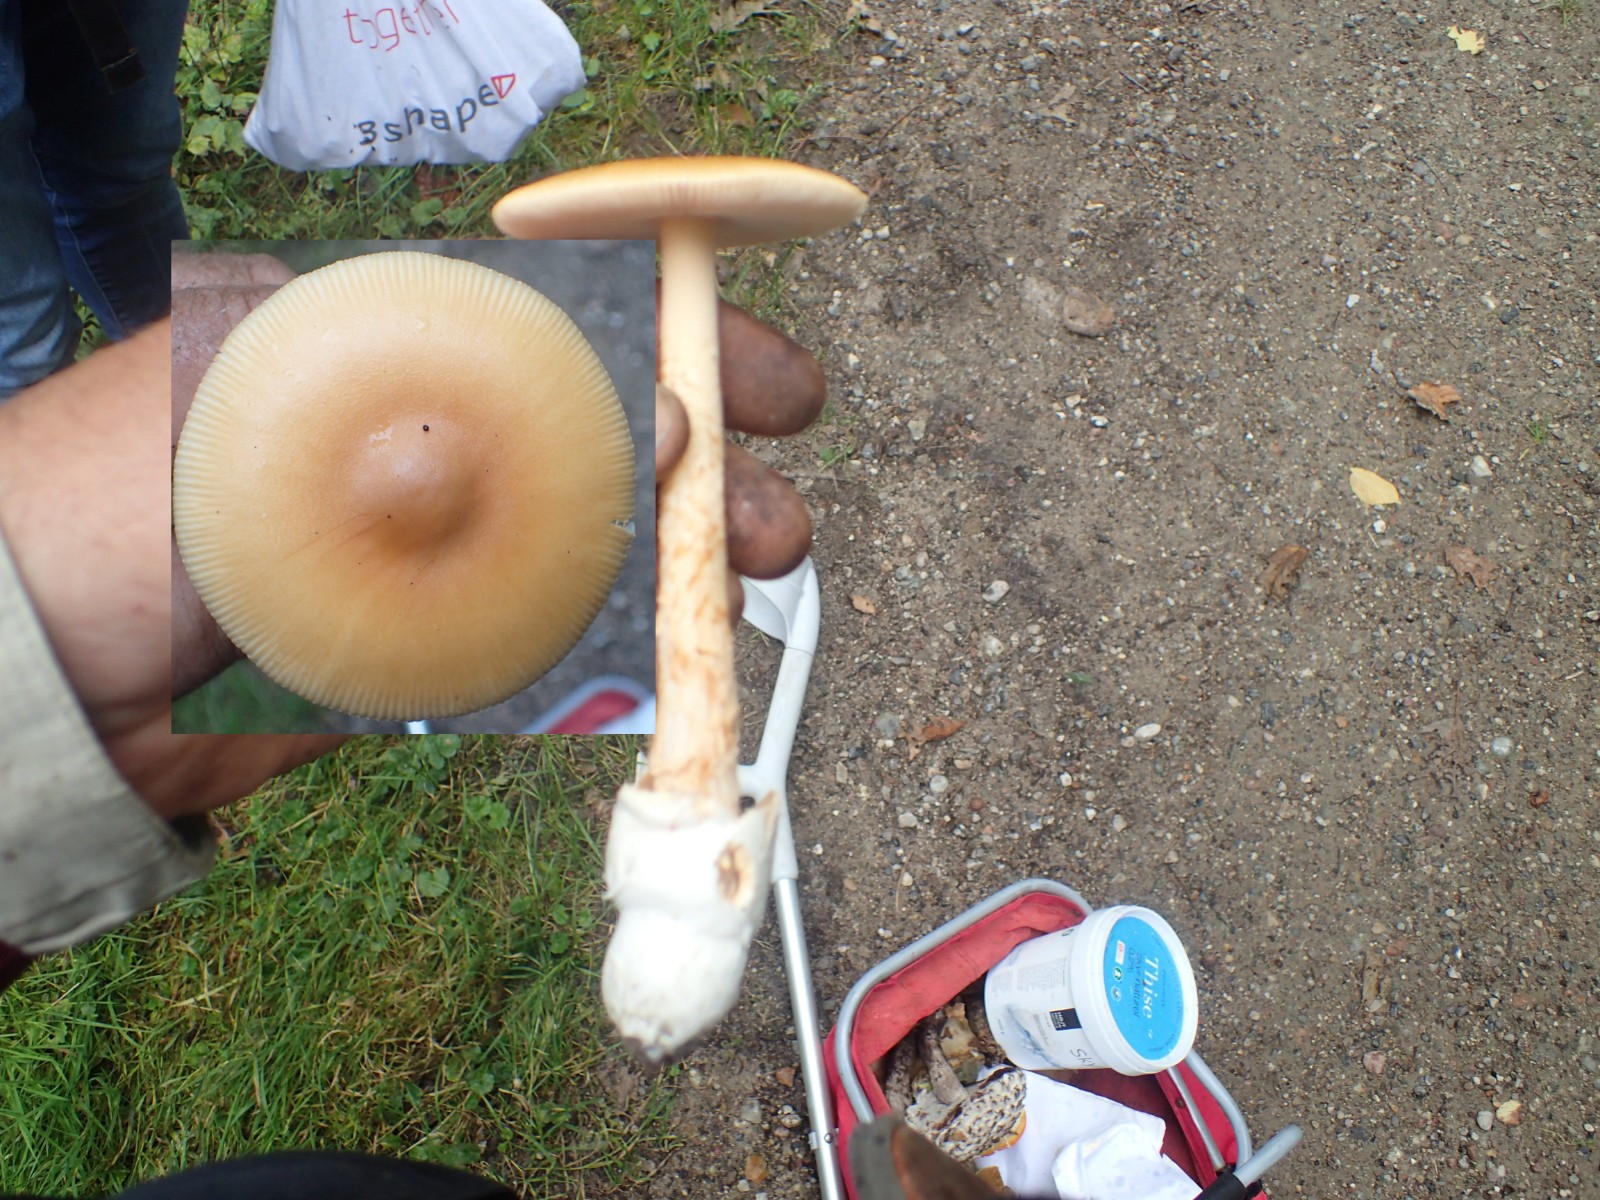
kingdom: Fungi
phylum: Basidiomycota
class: Agaricomycetes
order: Agaricales
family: Amanitaceae
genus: Amanita
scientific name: Amanita crocea
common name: gylden kam-fluesvamp
